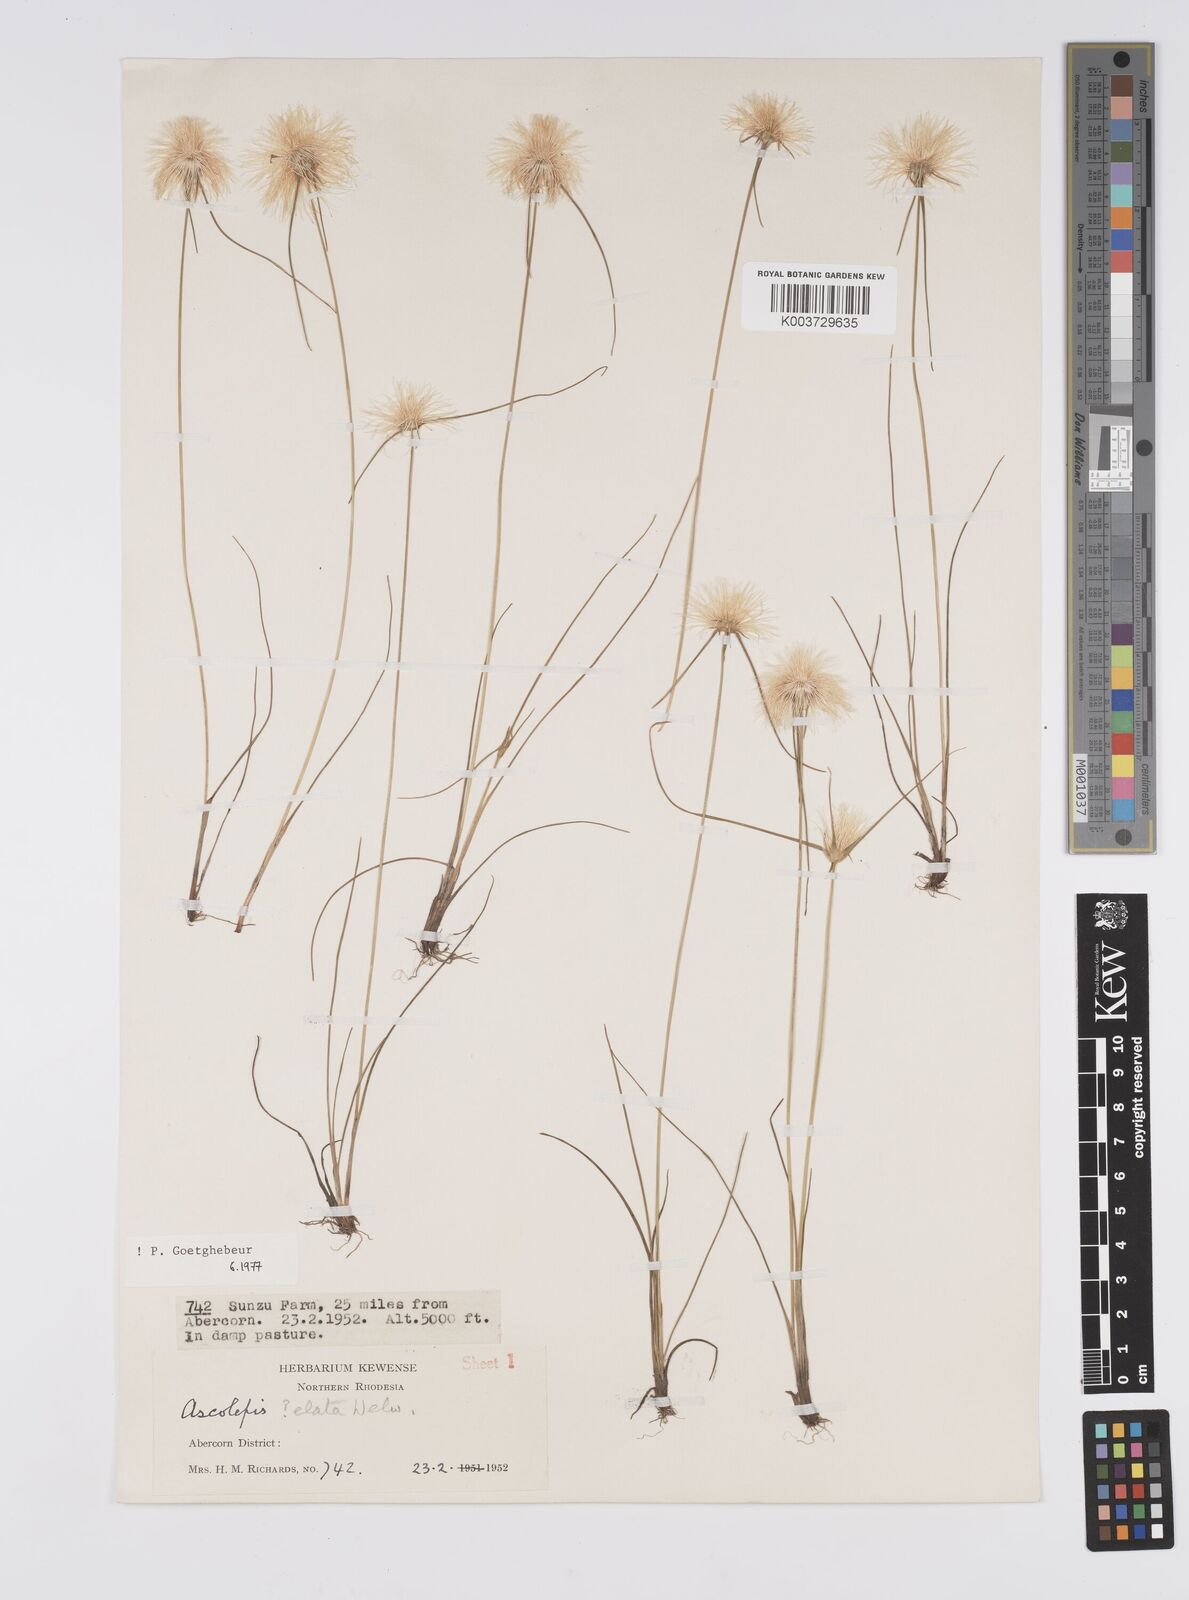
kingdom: Plantae
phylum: Tracheophyta
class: Liliopsida
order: Poales
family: Cyperaceae
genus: Cyperus
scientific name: Cyperus
